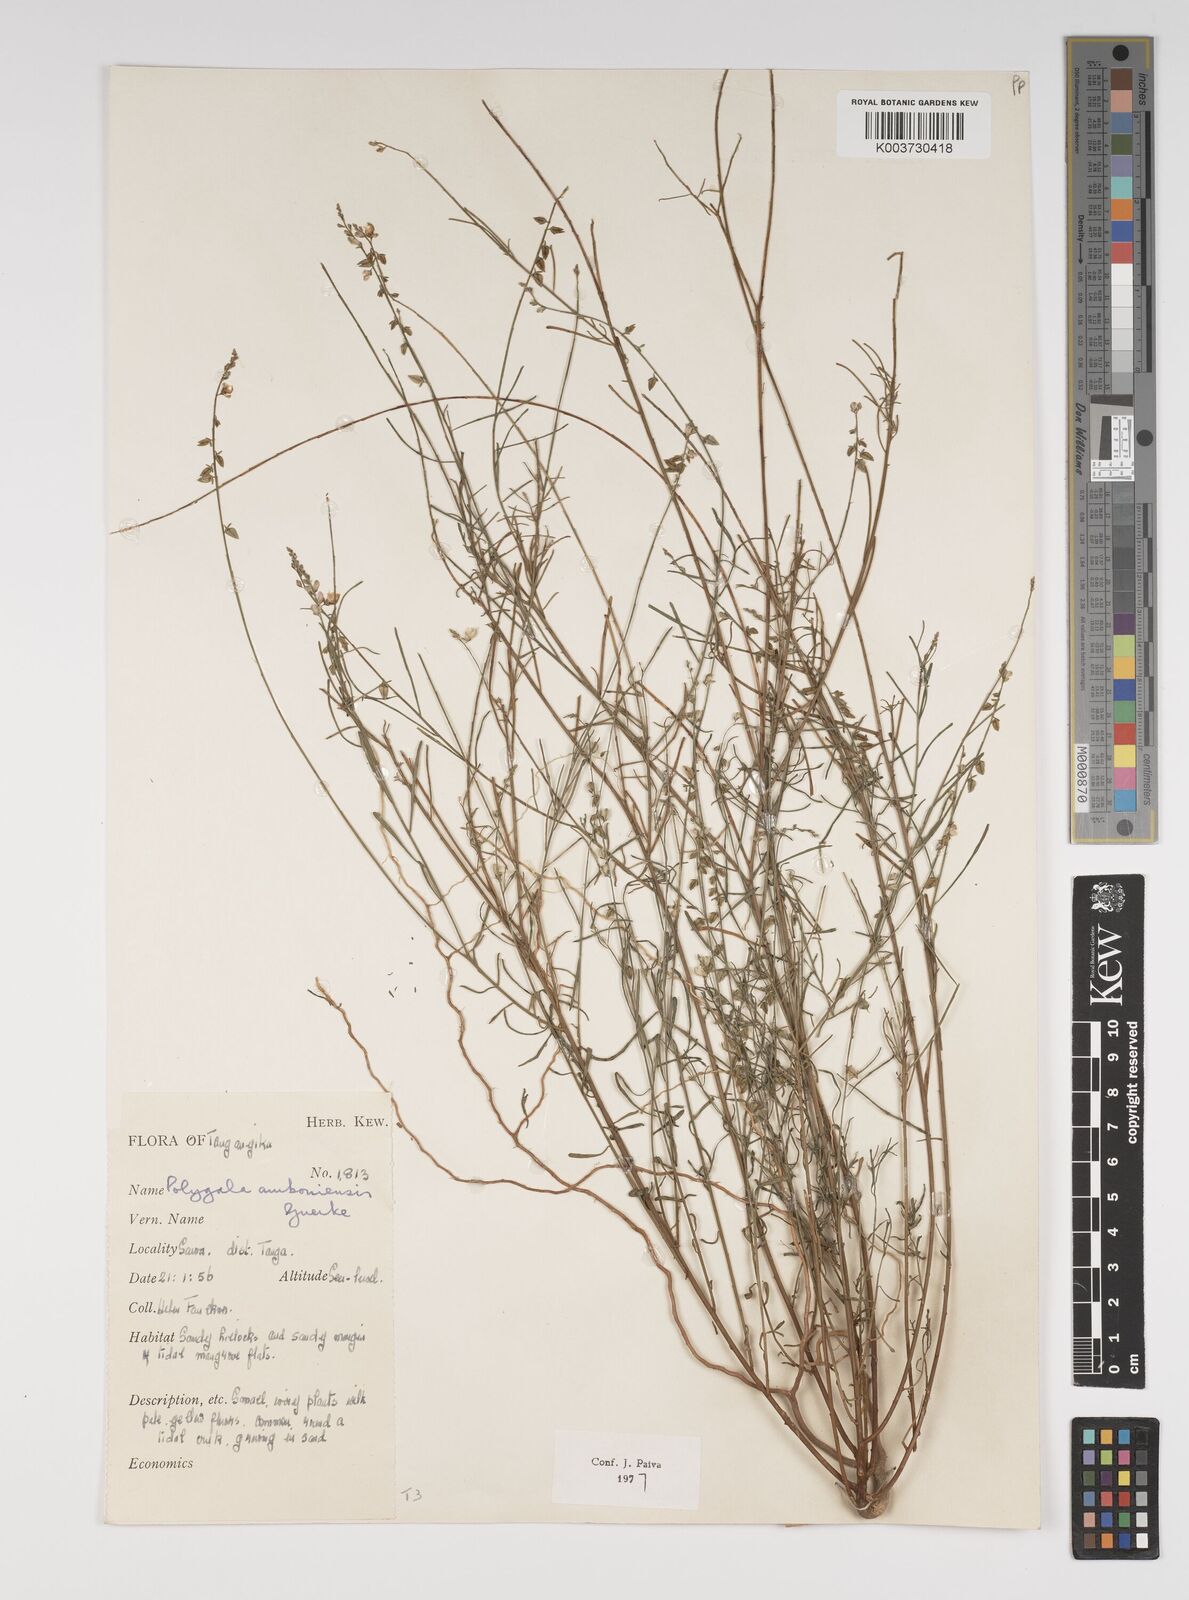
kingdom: Plantae
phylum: Tracheophyta
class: Magnoliopsida
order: Fabales
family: Polygalaceae
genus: Polygala
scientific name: Polygala amboniensis
